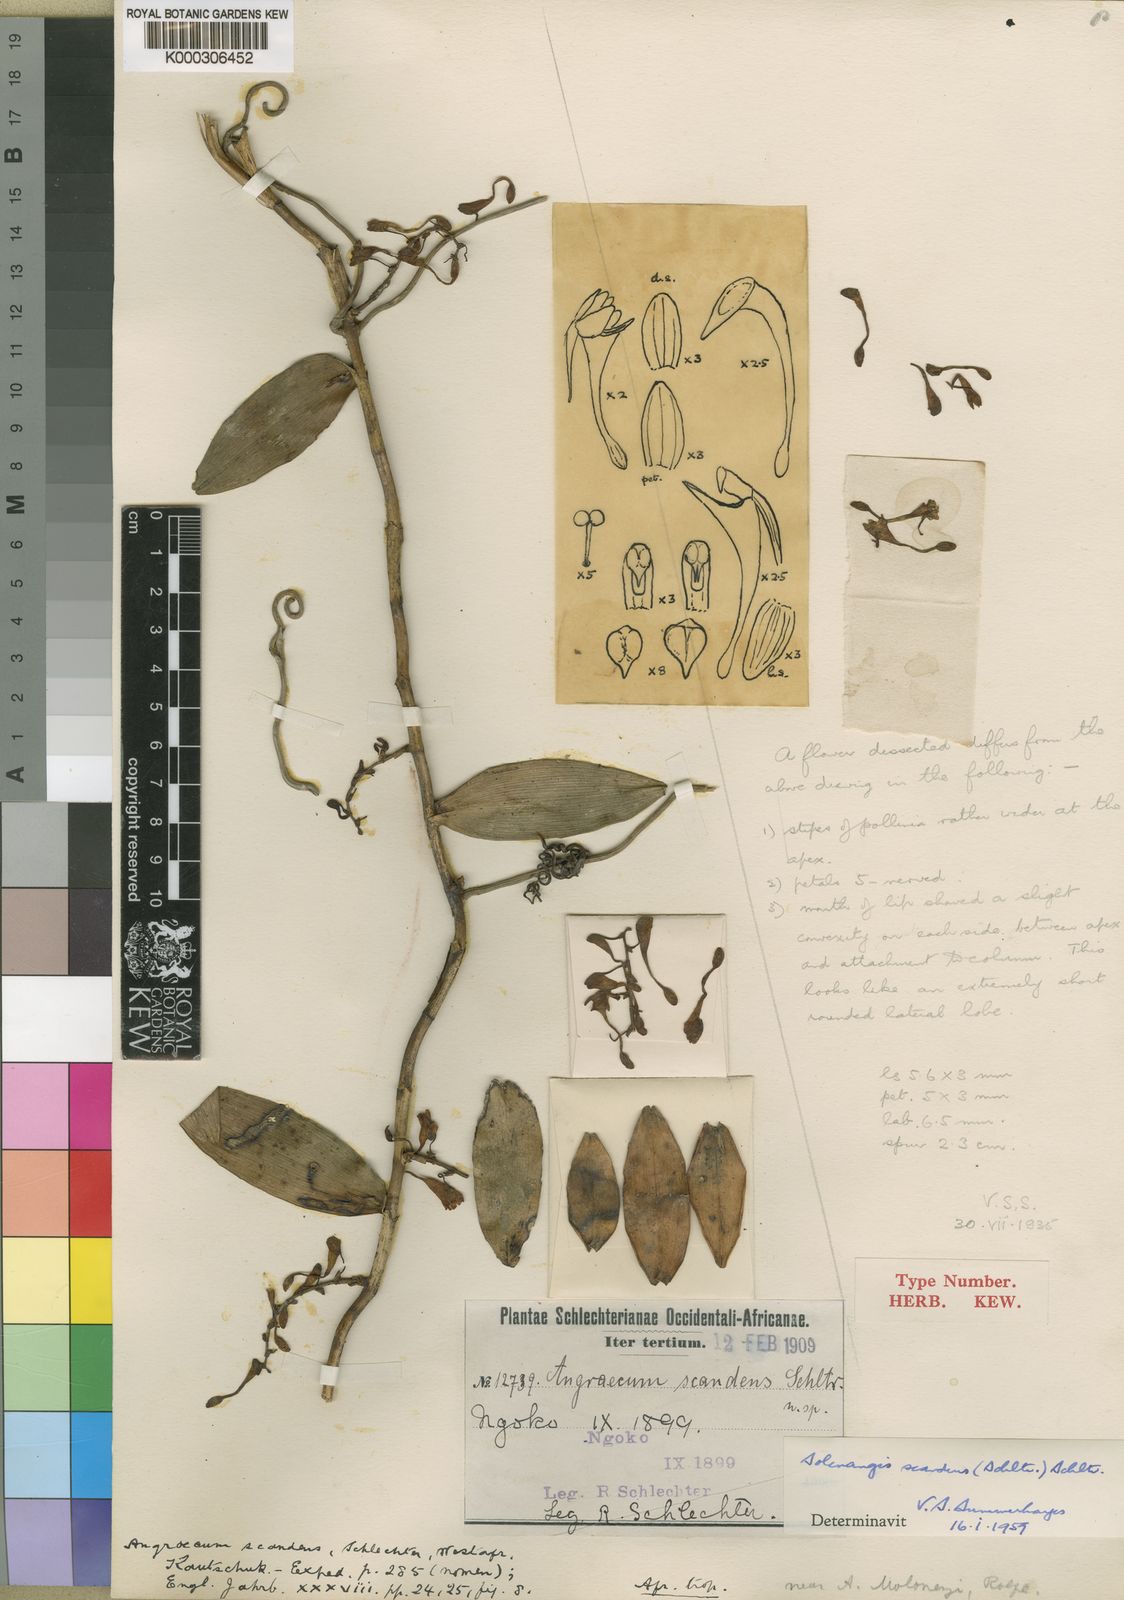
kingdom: Plantae
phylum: Tracheophyta
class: Liliopsida
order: Asparagales
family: Orchidaceae
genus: Solenangis
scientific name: Solenangis scandens
